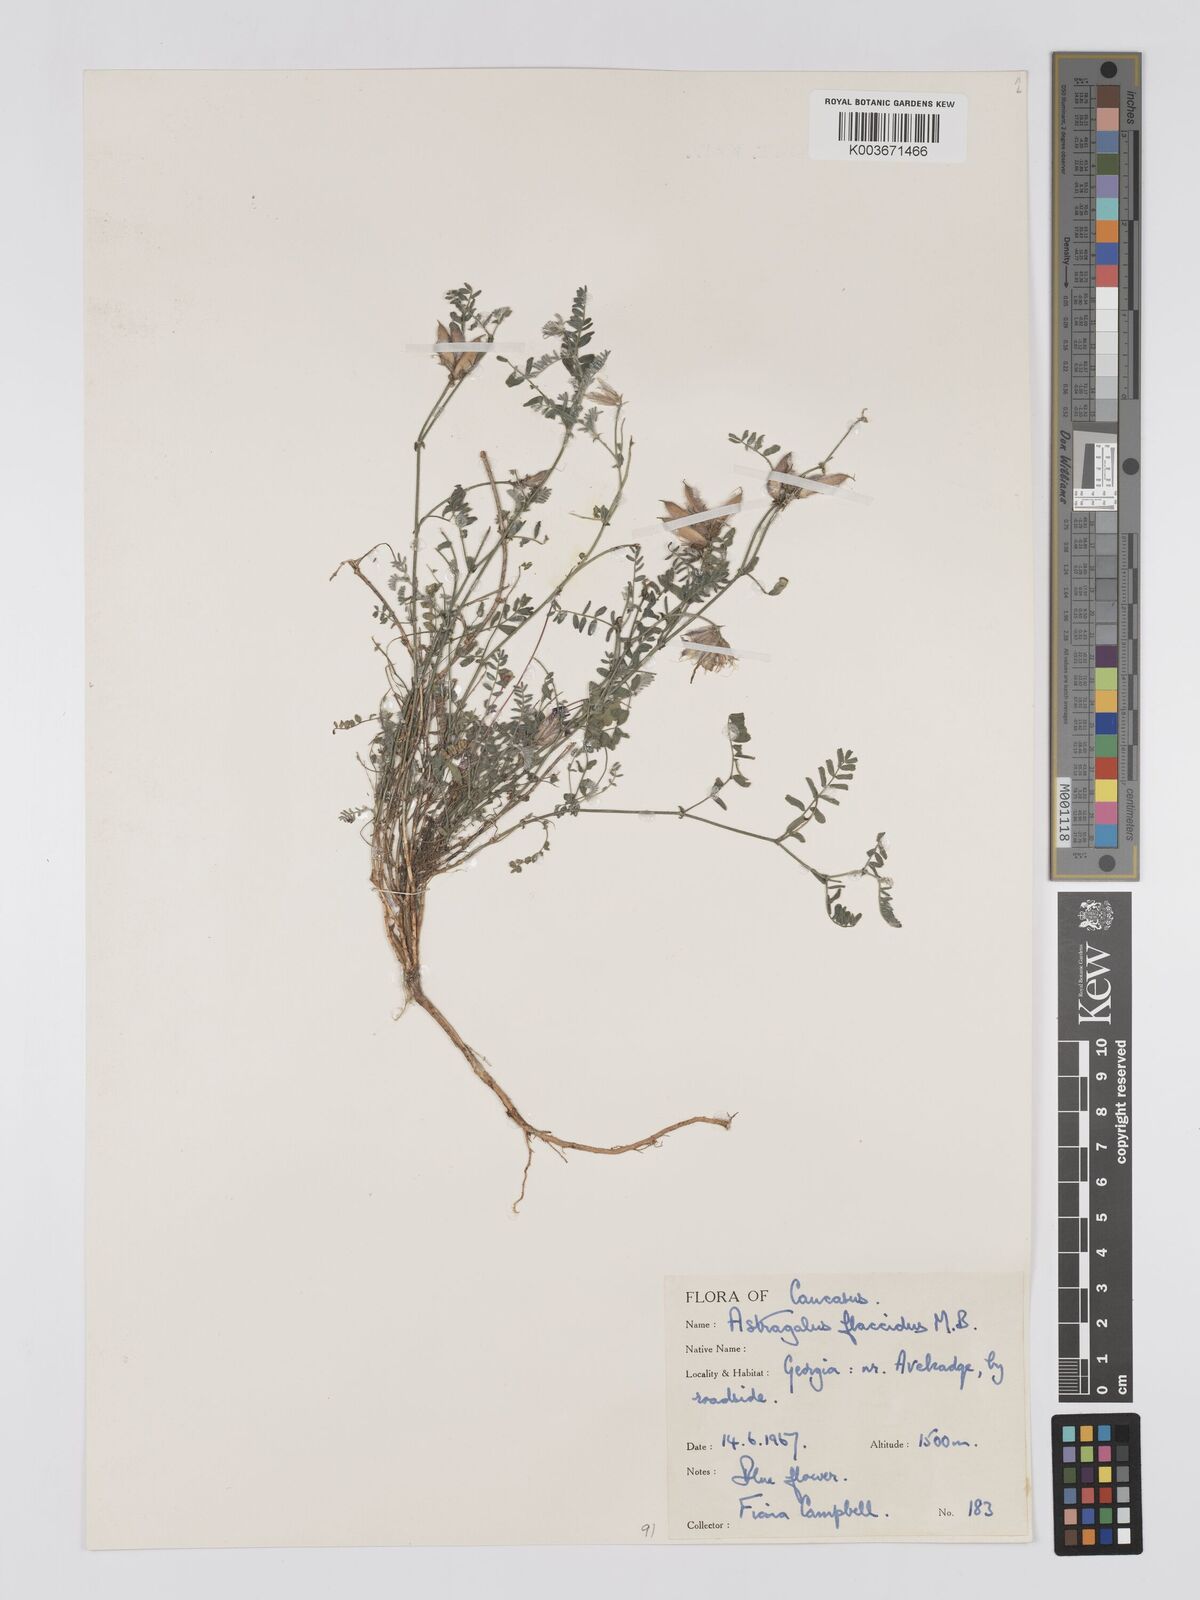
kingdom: Plantae
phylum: Tracheophyta
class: Magnoliopsida
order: Fabales
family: Fabaceae
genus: Astragalus
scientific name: Astragalus humifusus
